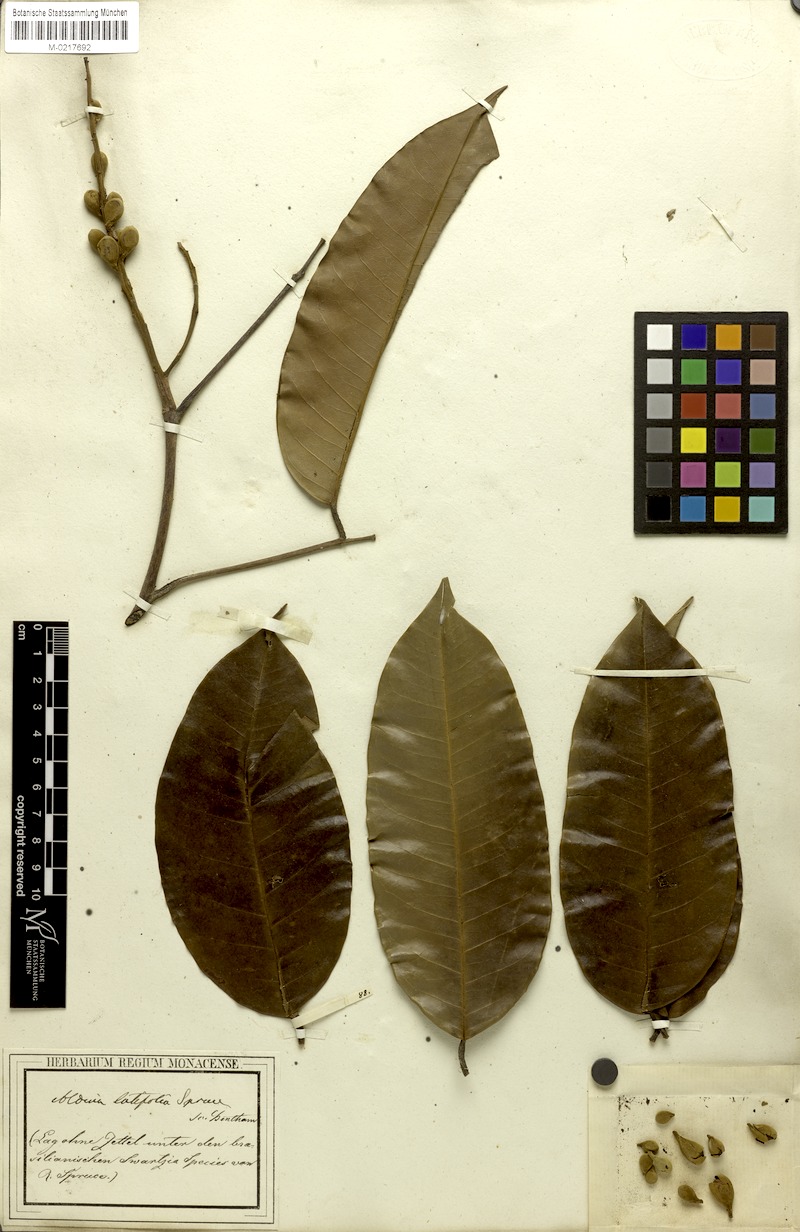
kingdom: Plantae
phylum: Tracheophyta
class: Magnoliopsida
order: Fabales
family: Fabaceae
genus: Aldina
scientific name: Aldina latifolia
